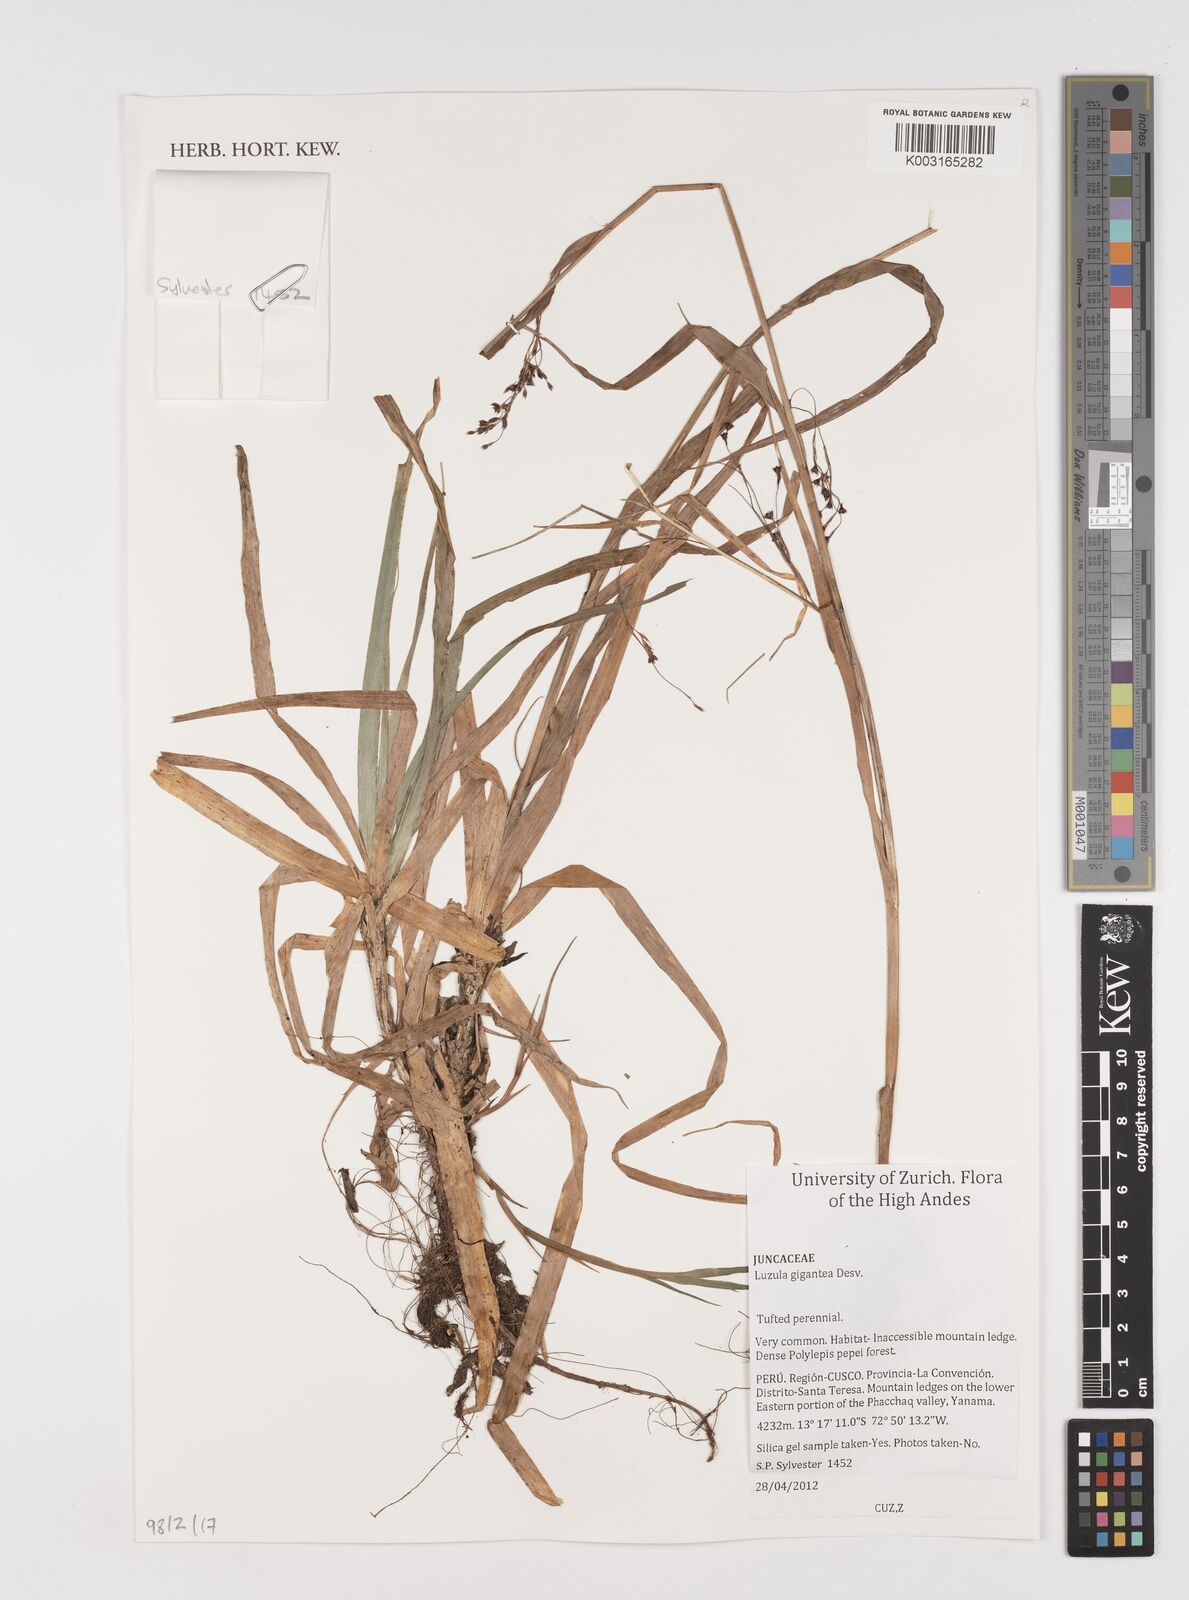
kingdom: Plantae
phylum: Tracheophyta
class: Liliopsida
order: Poales
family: Juncaceae
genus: Luzula
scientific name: Luzula gigantea
